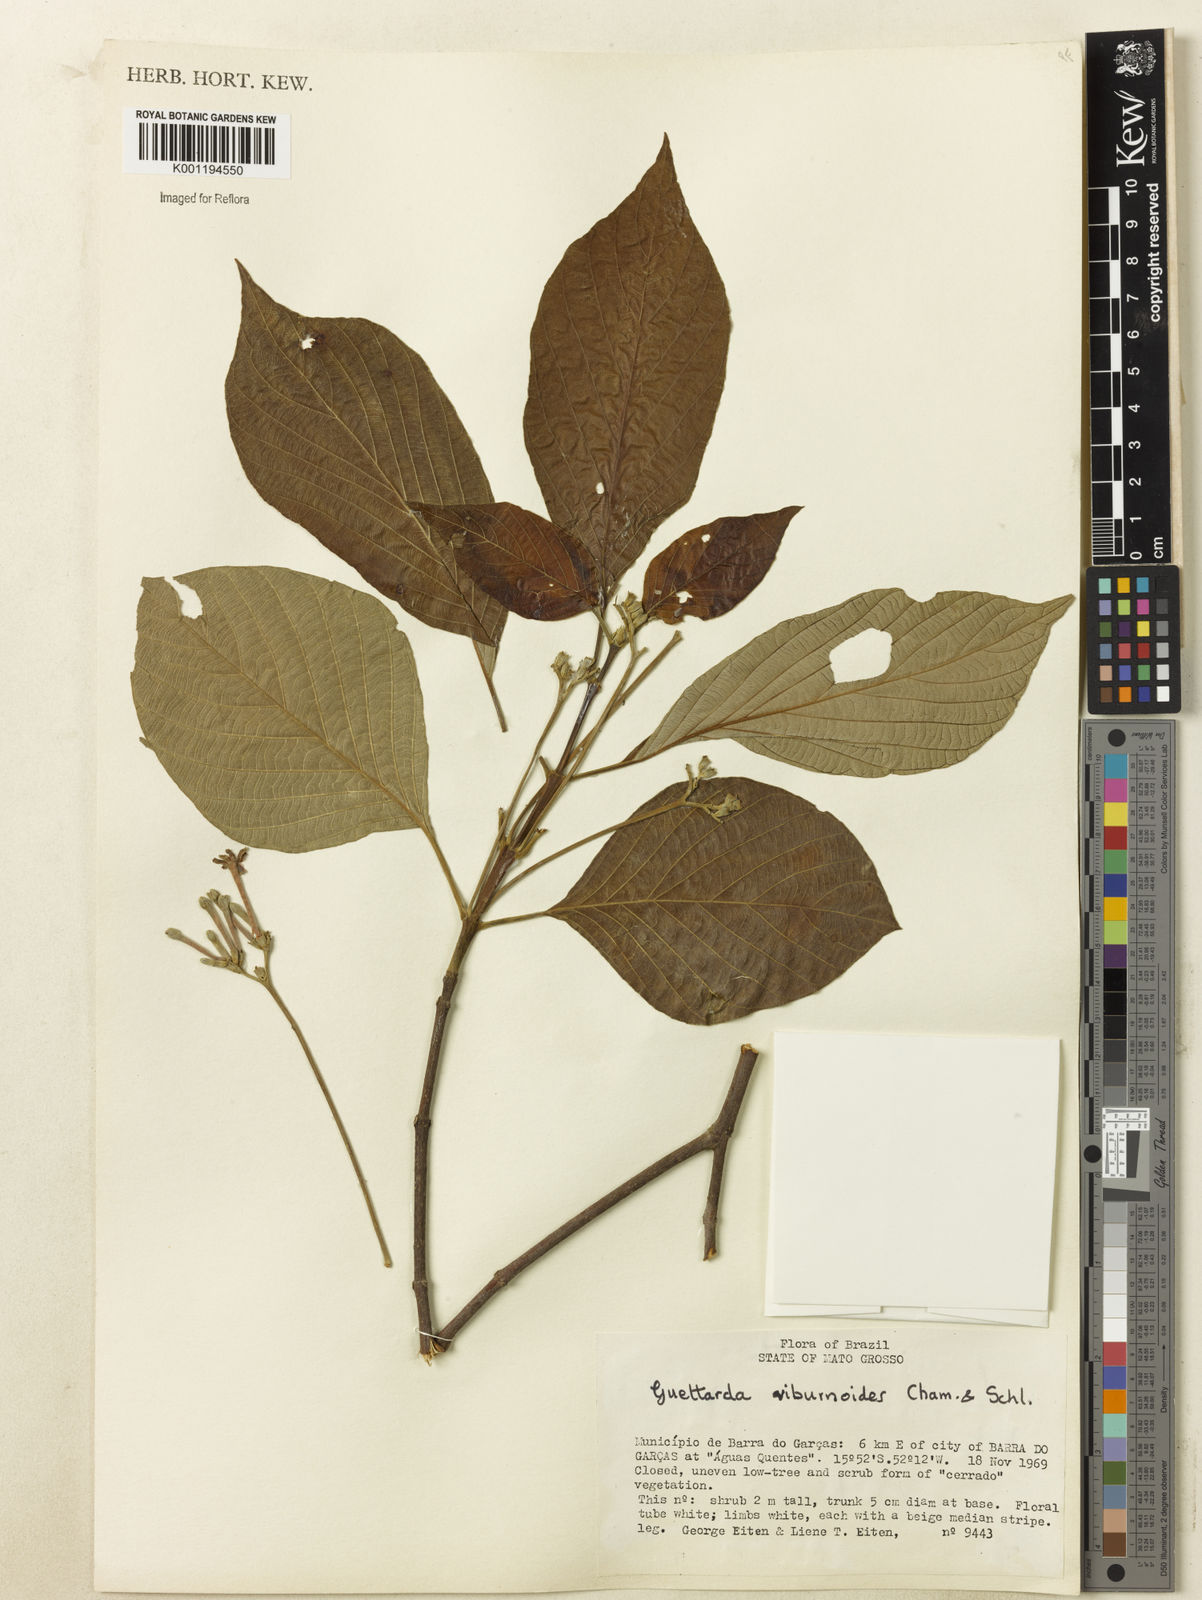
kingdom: Plantae
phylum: Tracheophyta
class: Magnoliopsida
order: Gentianales
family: Rubiaceae
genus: Guettarda
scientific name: Guettarda viburnoides
